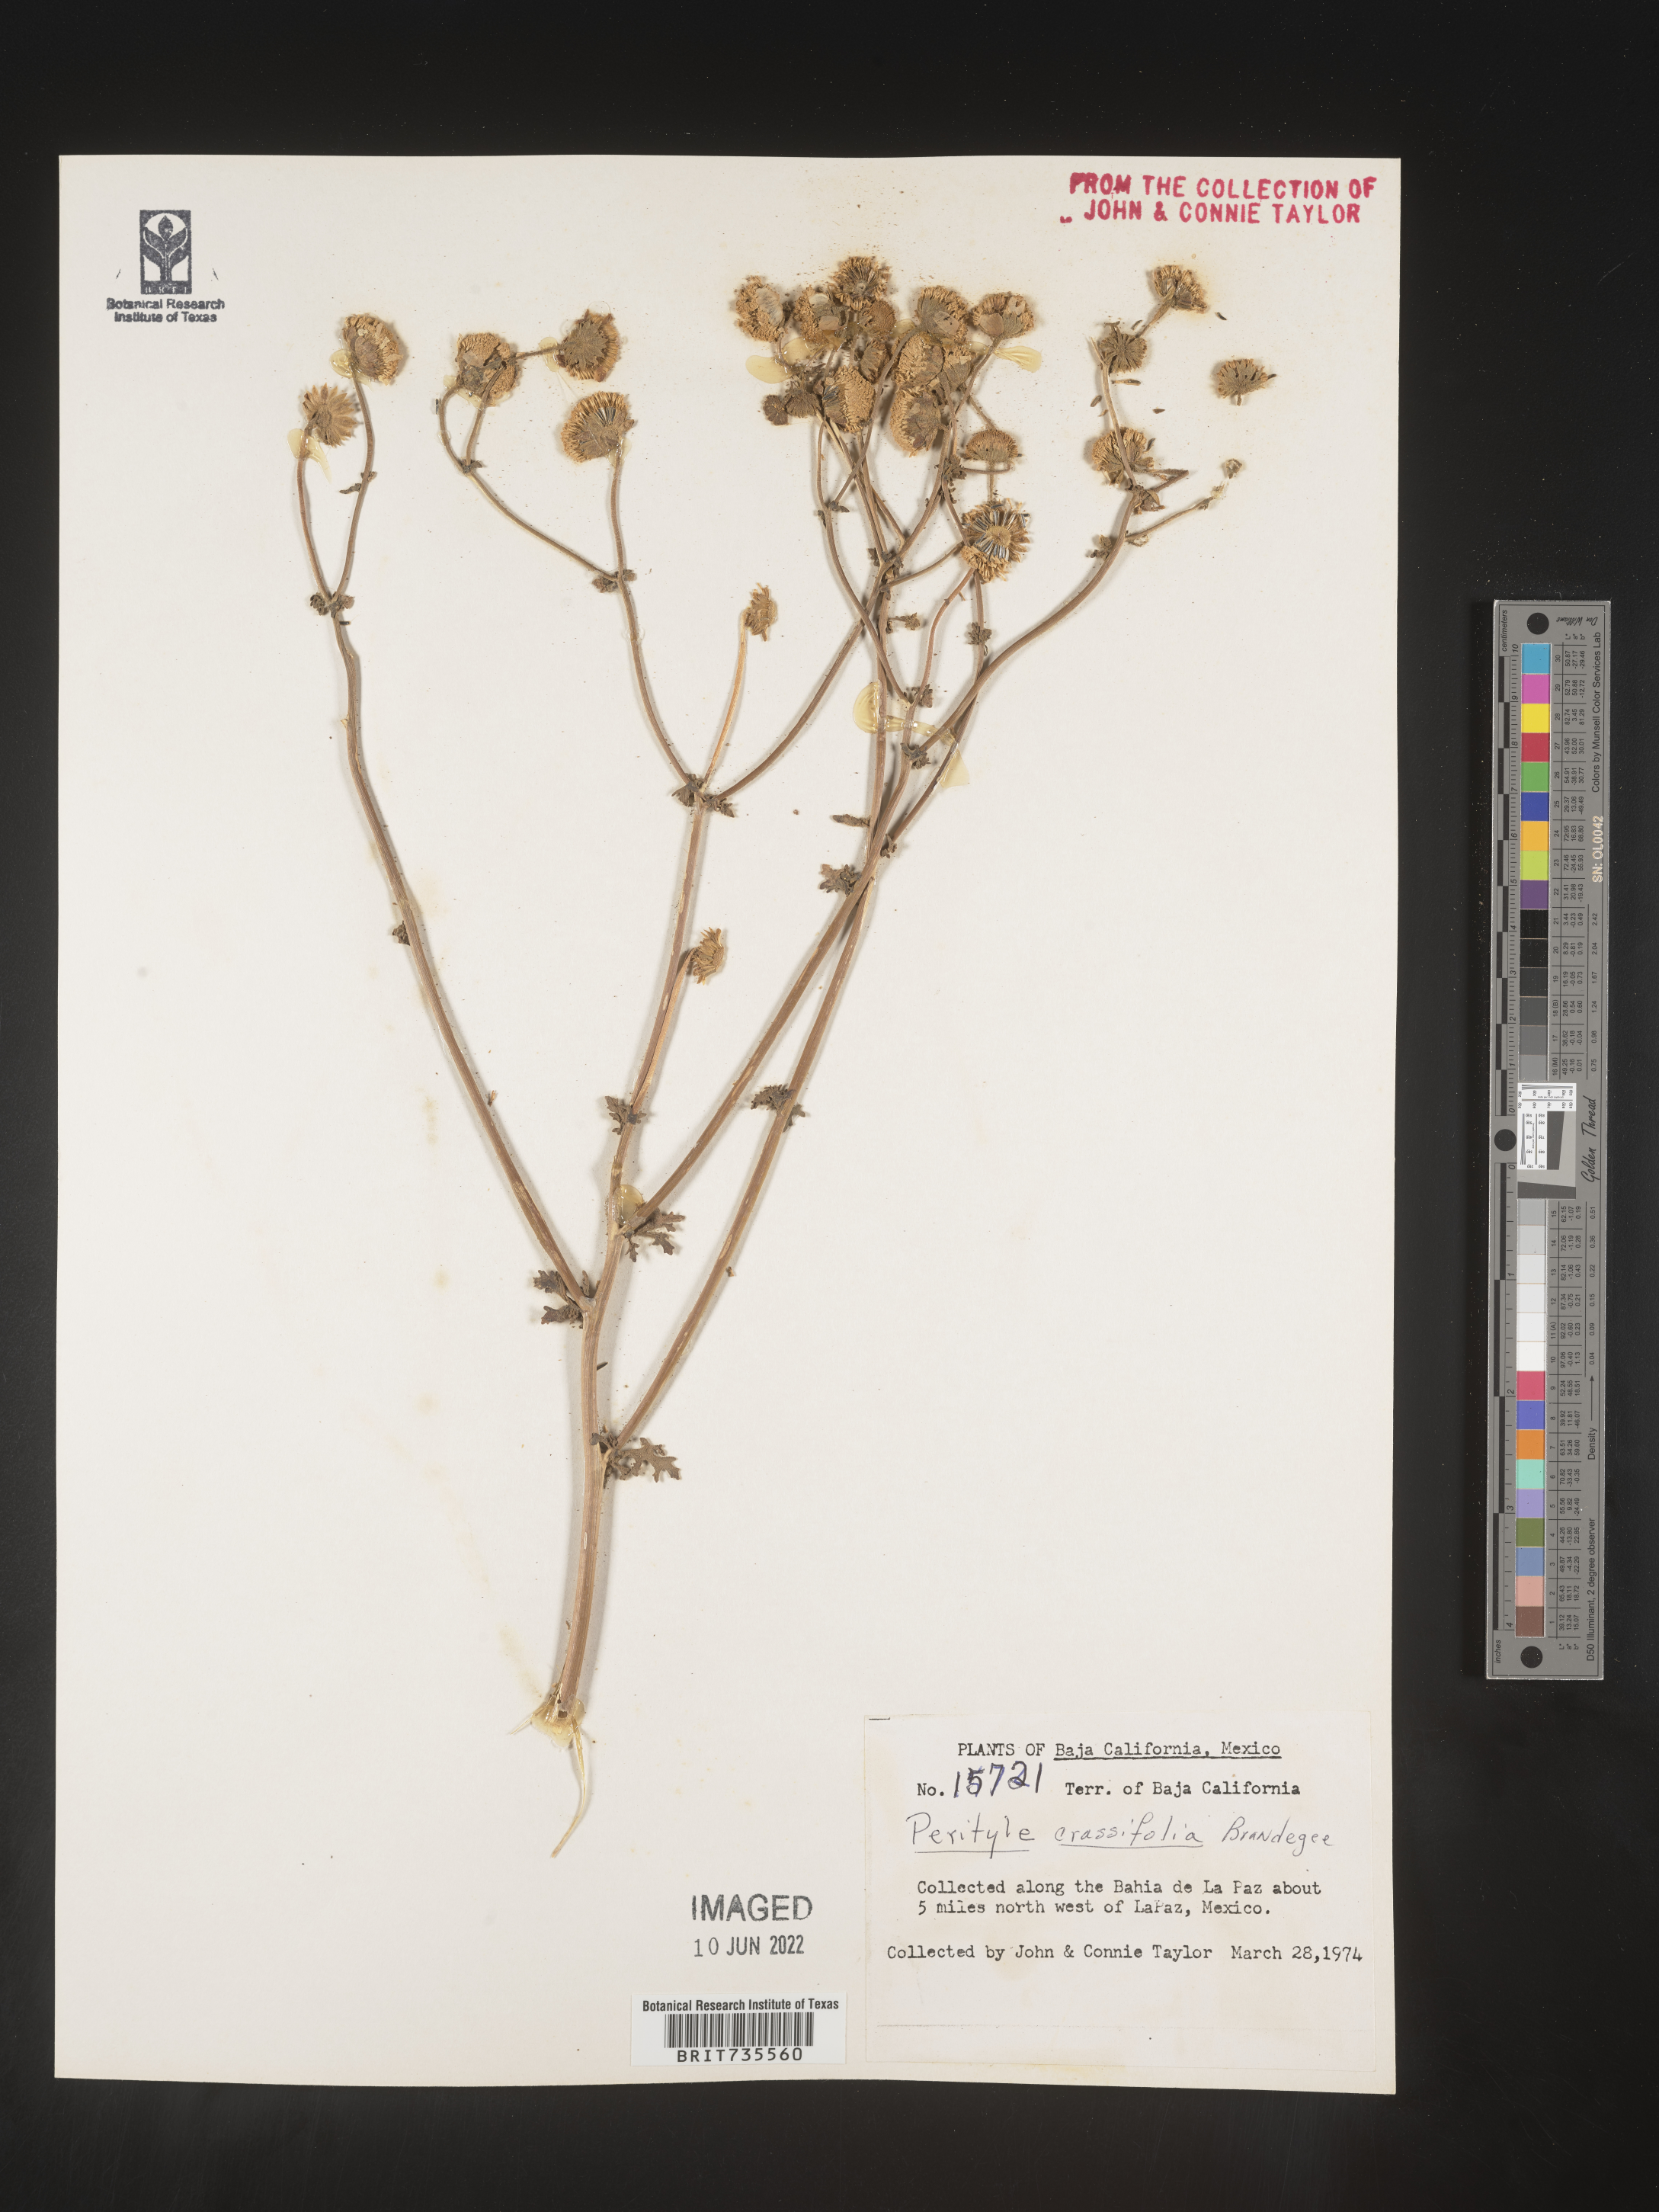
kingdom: Plantae
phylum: Tracheophyta
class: Magnoliopsida
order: Asterales
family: Asteraceae
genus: Perityle
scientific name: Perityle
